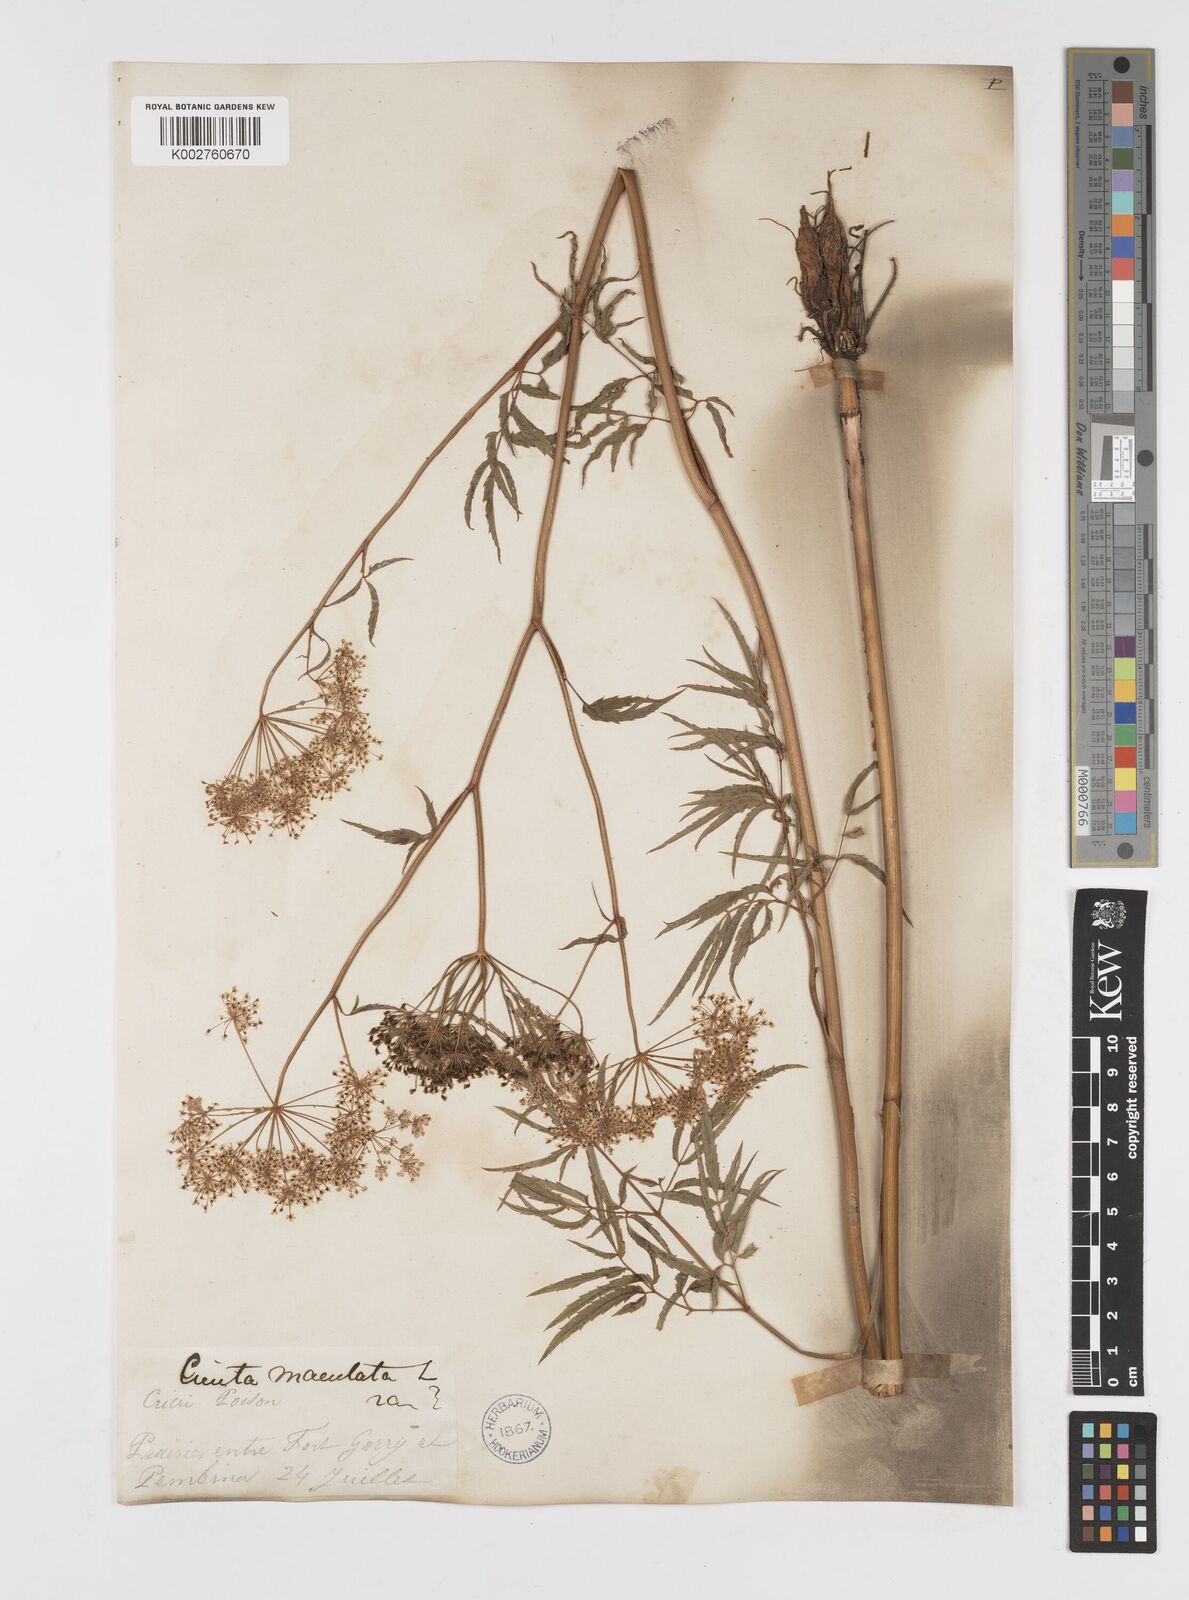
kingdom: Plantae
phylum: Tracheophyta
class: Magnoliopsida
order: Apiales
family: Apiaceae
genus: Cicuta
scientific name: Cicuta maculata
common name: Spotted cowbane
